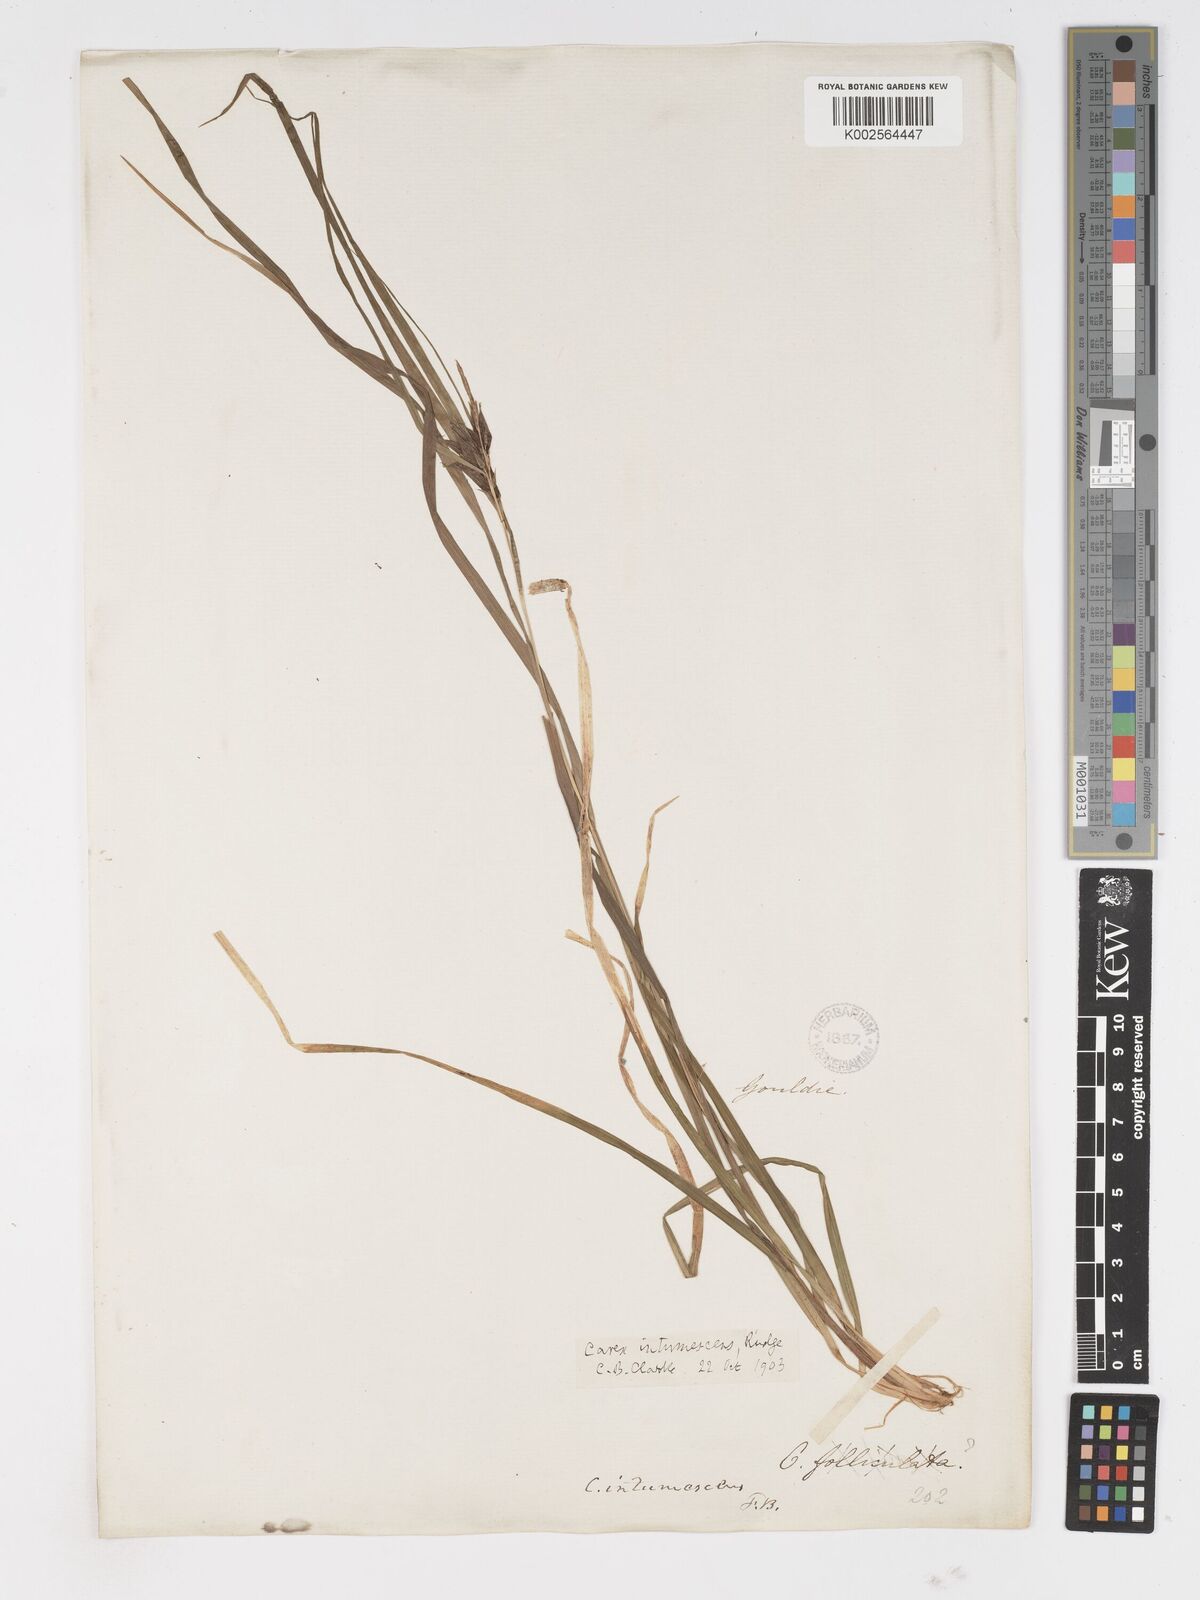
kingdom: Plantae
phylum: Tracheophyta
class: Liliopsida
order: Poales
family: Cyperaceae
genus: Carex
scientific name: Carex intumescens
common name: Greater bladder sedge
